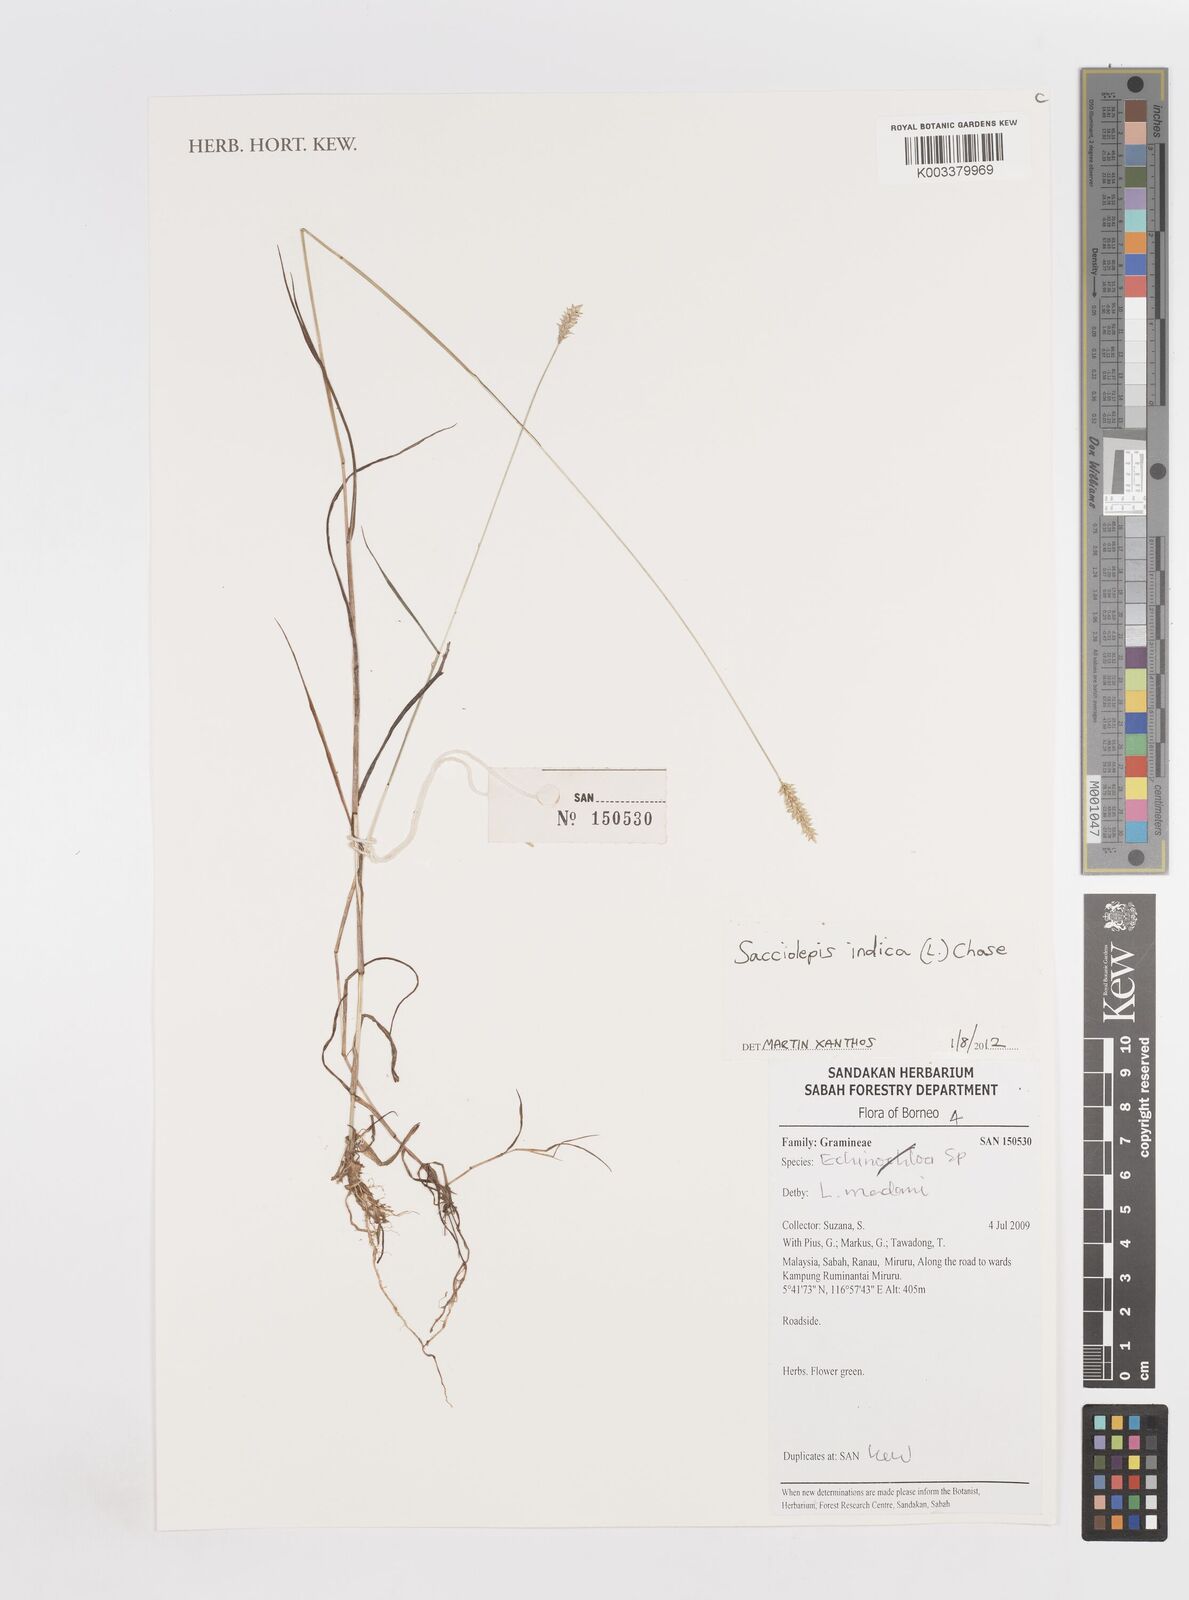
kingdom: Plantae
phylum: Tracheophyta
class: Liliopsida
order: Poales
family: Poaceae
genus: Sacciolepis
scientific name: Sacciolepis indica
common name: Glenwoodgrass
